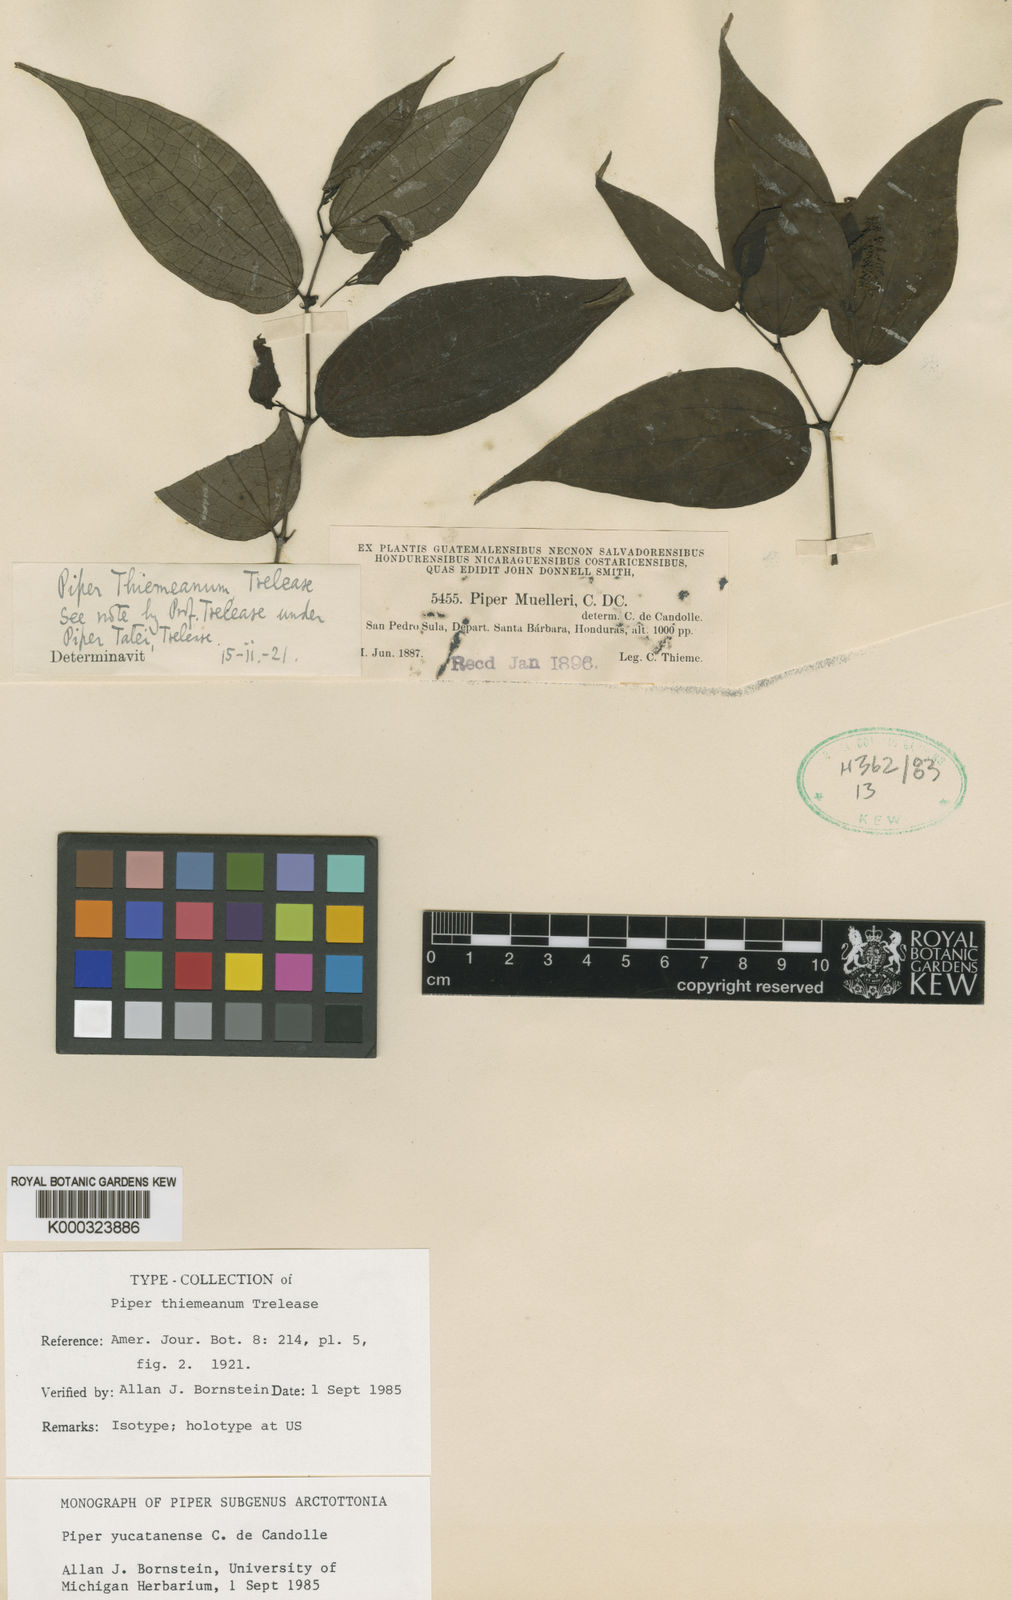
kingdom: Plantae
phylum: Tracheophyta
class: Magnoliopsida
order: Piperales
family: Piperaceae
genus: Piper
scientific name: Piper yucatanense
